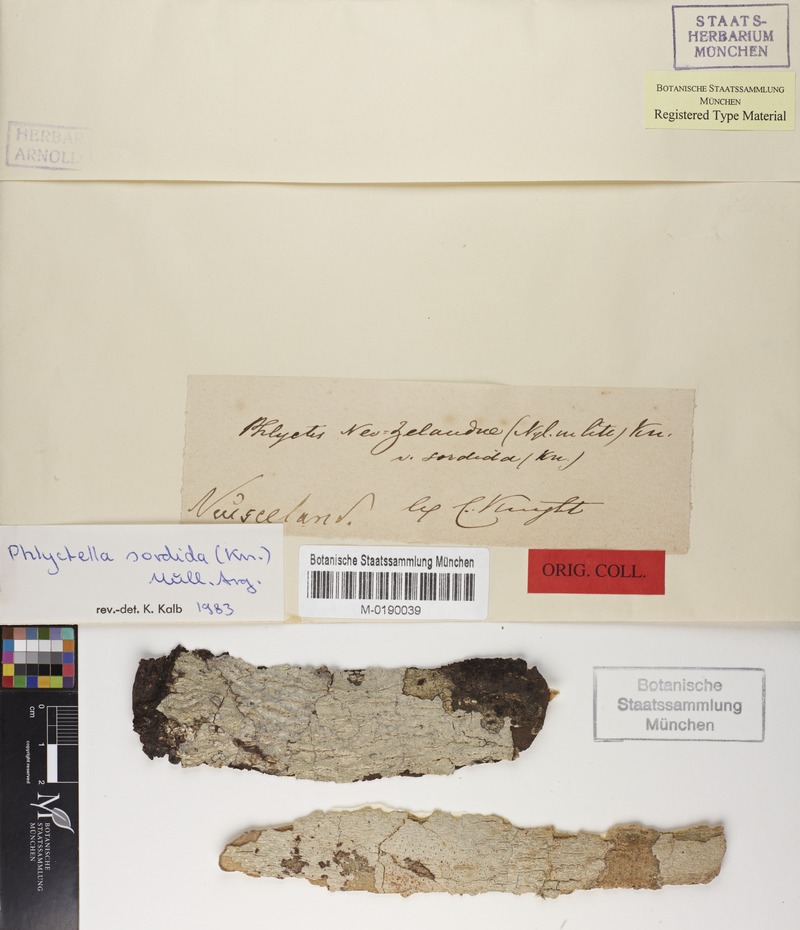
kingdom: Fungi
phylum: Ascomycota
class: Lecanoromycetes
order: Ostropales
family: Phlyctidaceae
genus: Phlyctis
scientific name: Phlyctis
